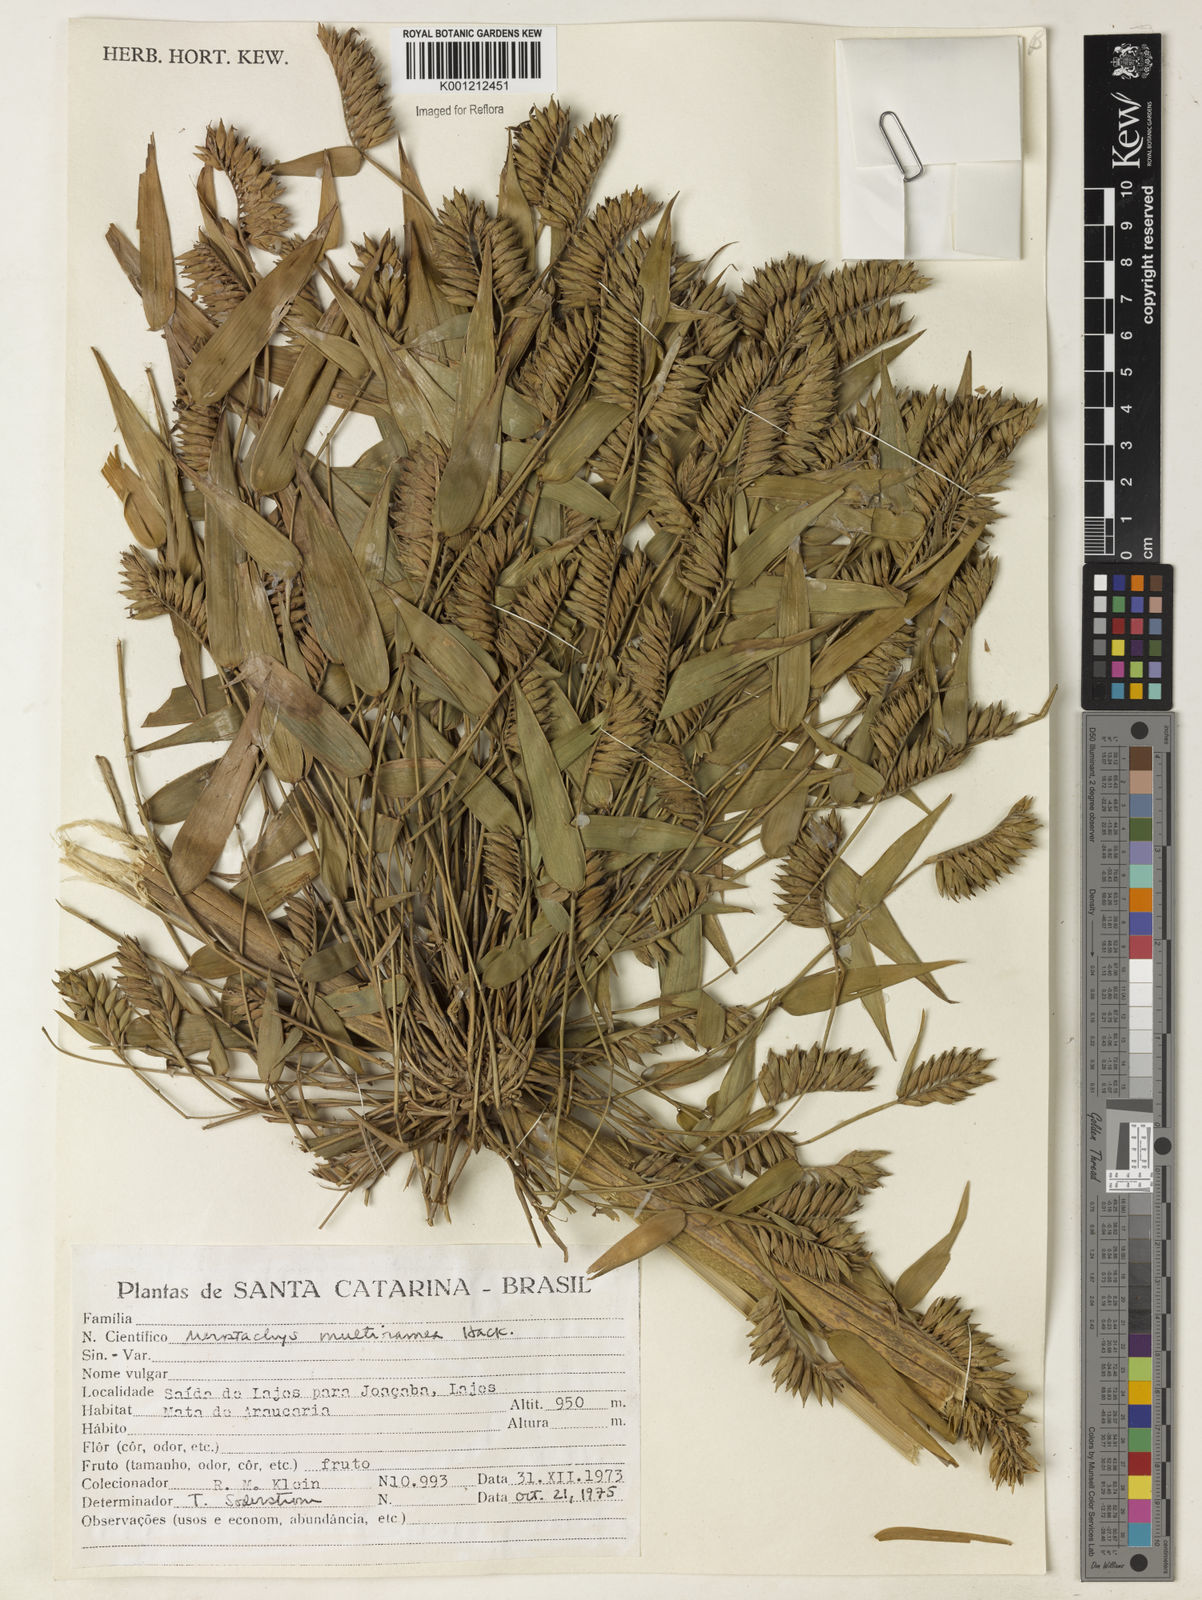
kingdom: Plantae
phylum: Tracheophyta
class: Liliopsida
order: Poales
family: Poaceae
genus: Merostachys
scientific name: Merostachys multiramea
